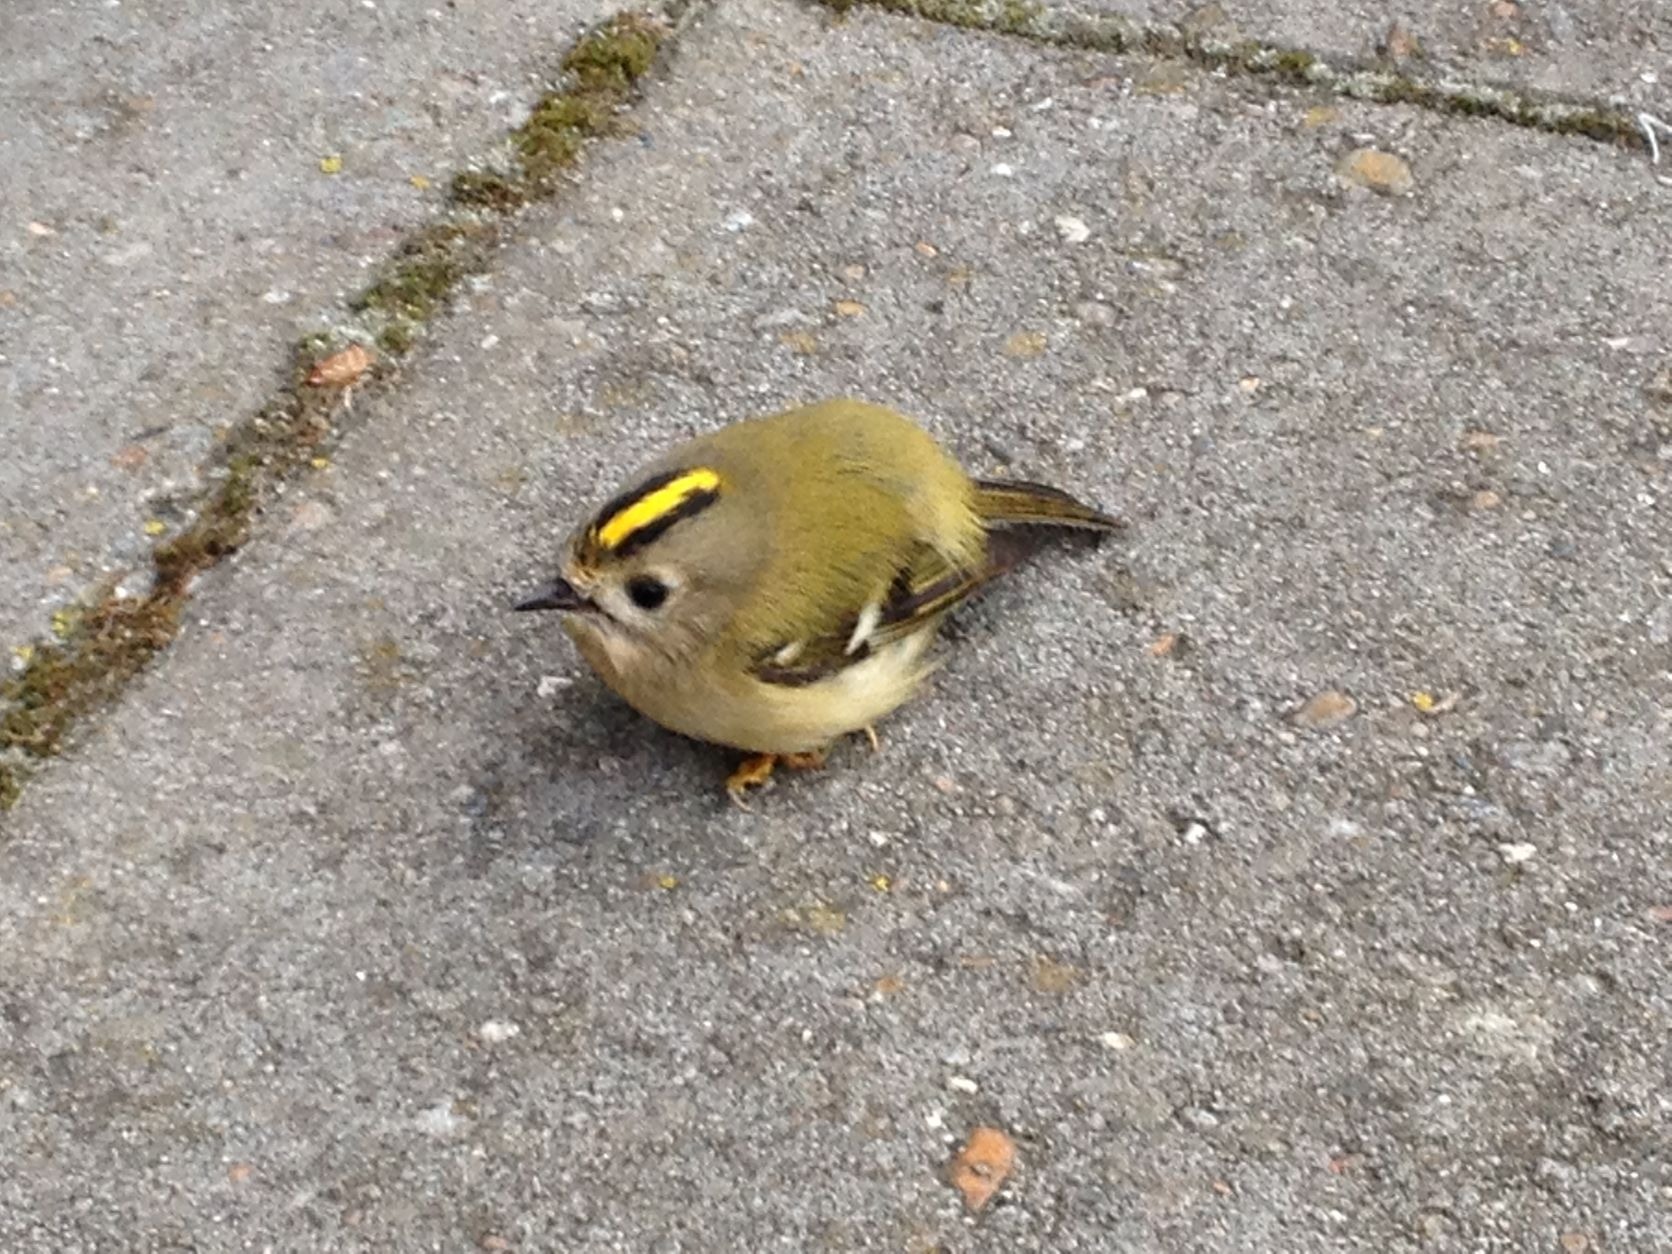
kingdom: Animalia
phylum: Chordata
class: Aves
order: Passeriformes
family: Regulidae
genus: Regulus
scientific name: Regulus regulus
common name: Fuglekonge
